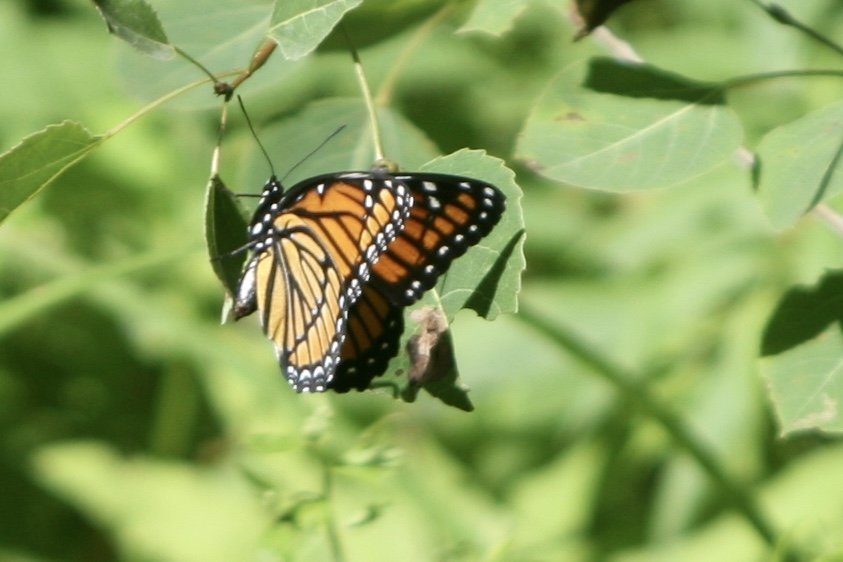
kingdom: Animalia
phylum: Arthropoda
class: Insecta
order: Lepidoptera
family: Nymphalidae
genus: Limenitis
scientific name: Limenitis archippus
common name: Viceroy
